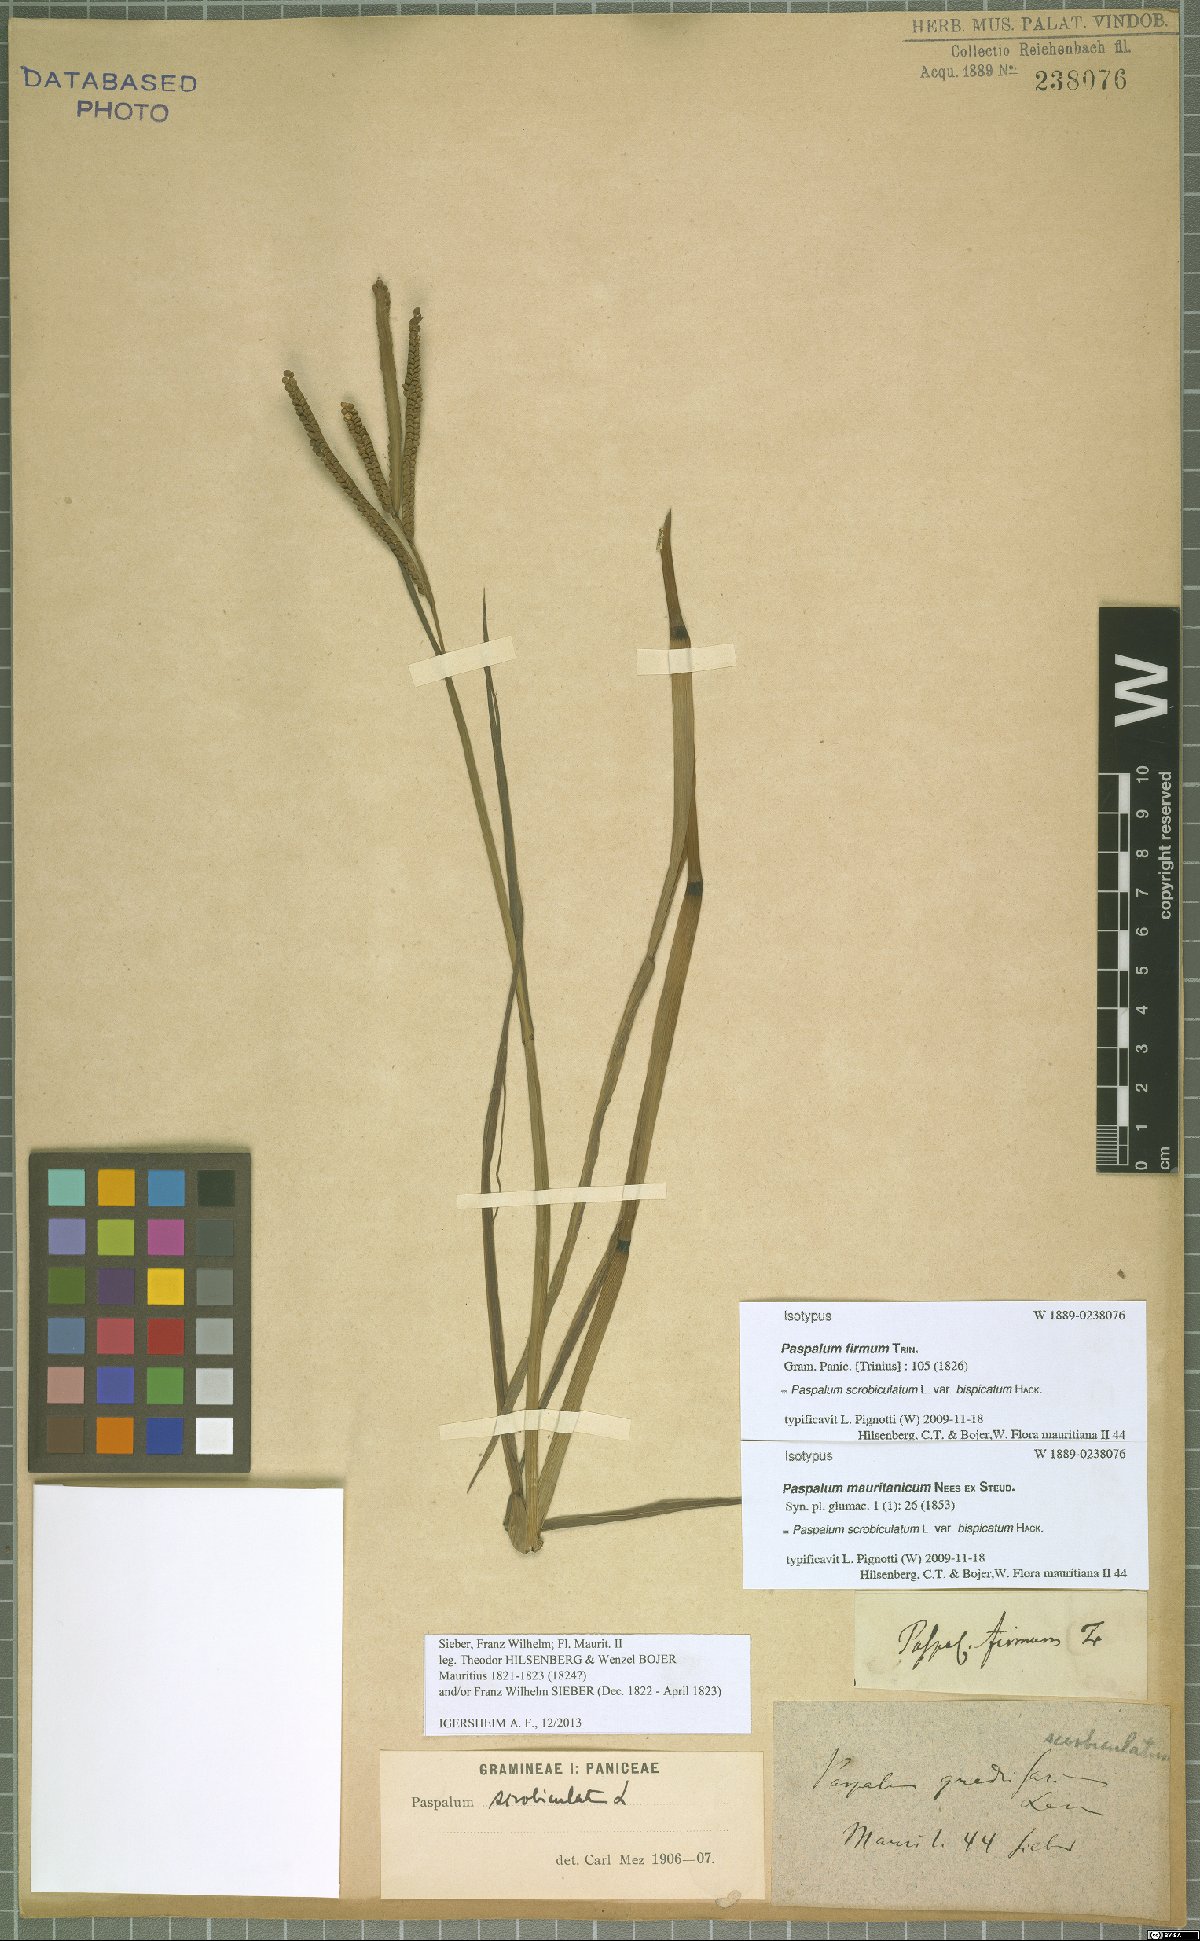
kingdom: Plantae
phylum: Tracheophyta
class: Liliopsida
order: Poales
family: Poaceae
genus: Paspalum
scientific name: Paspalum scrobiculatum
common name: Kodo millet
